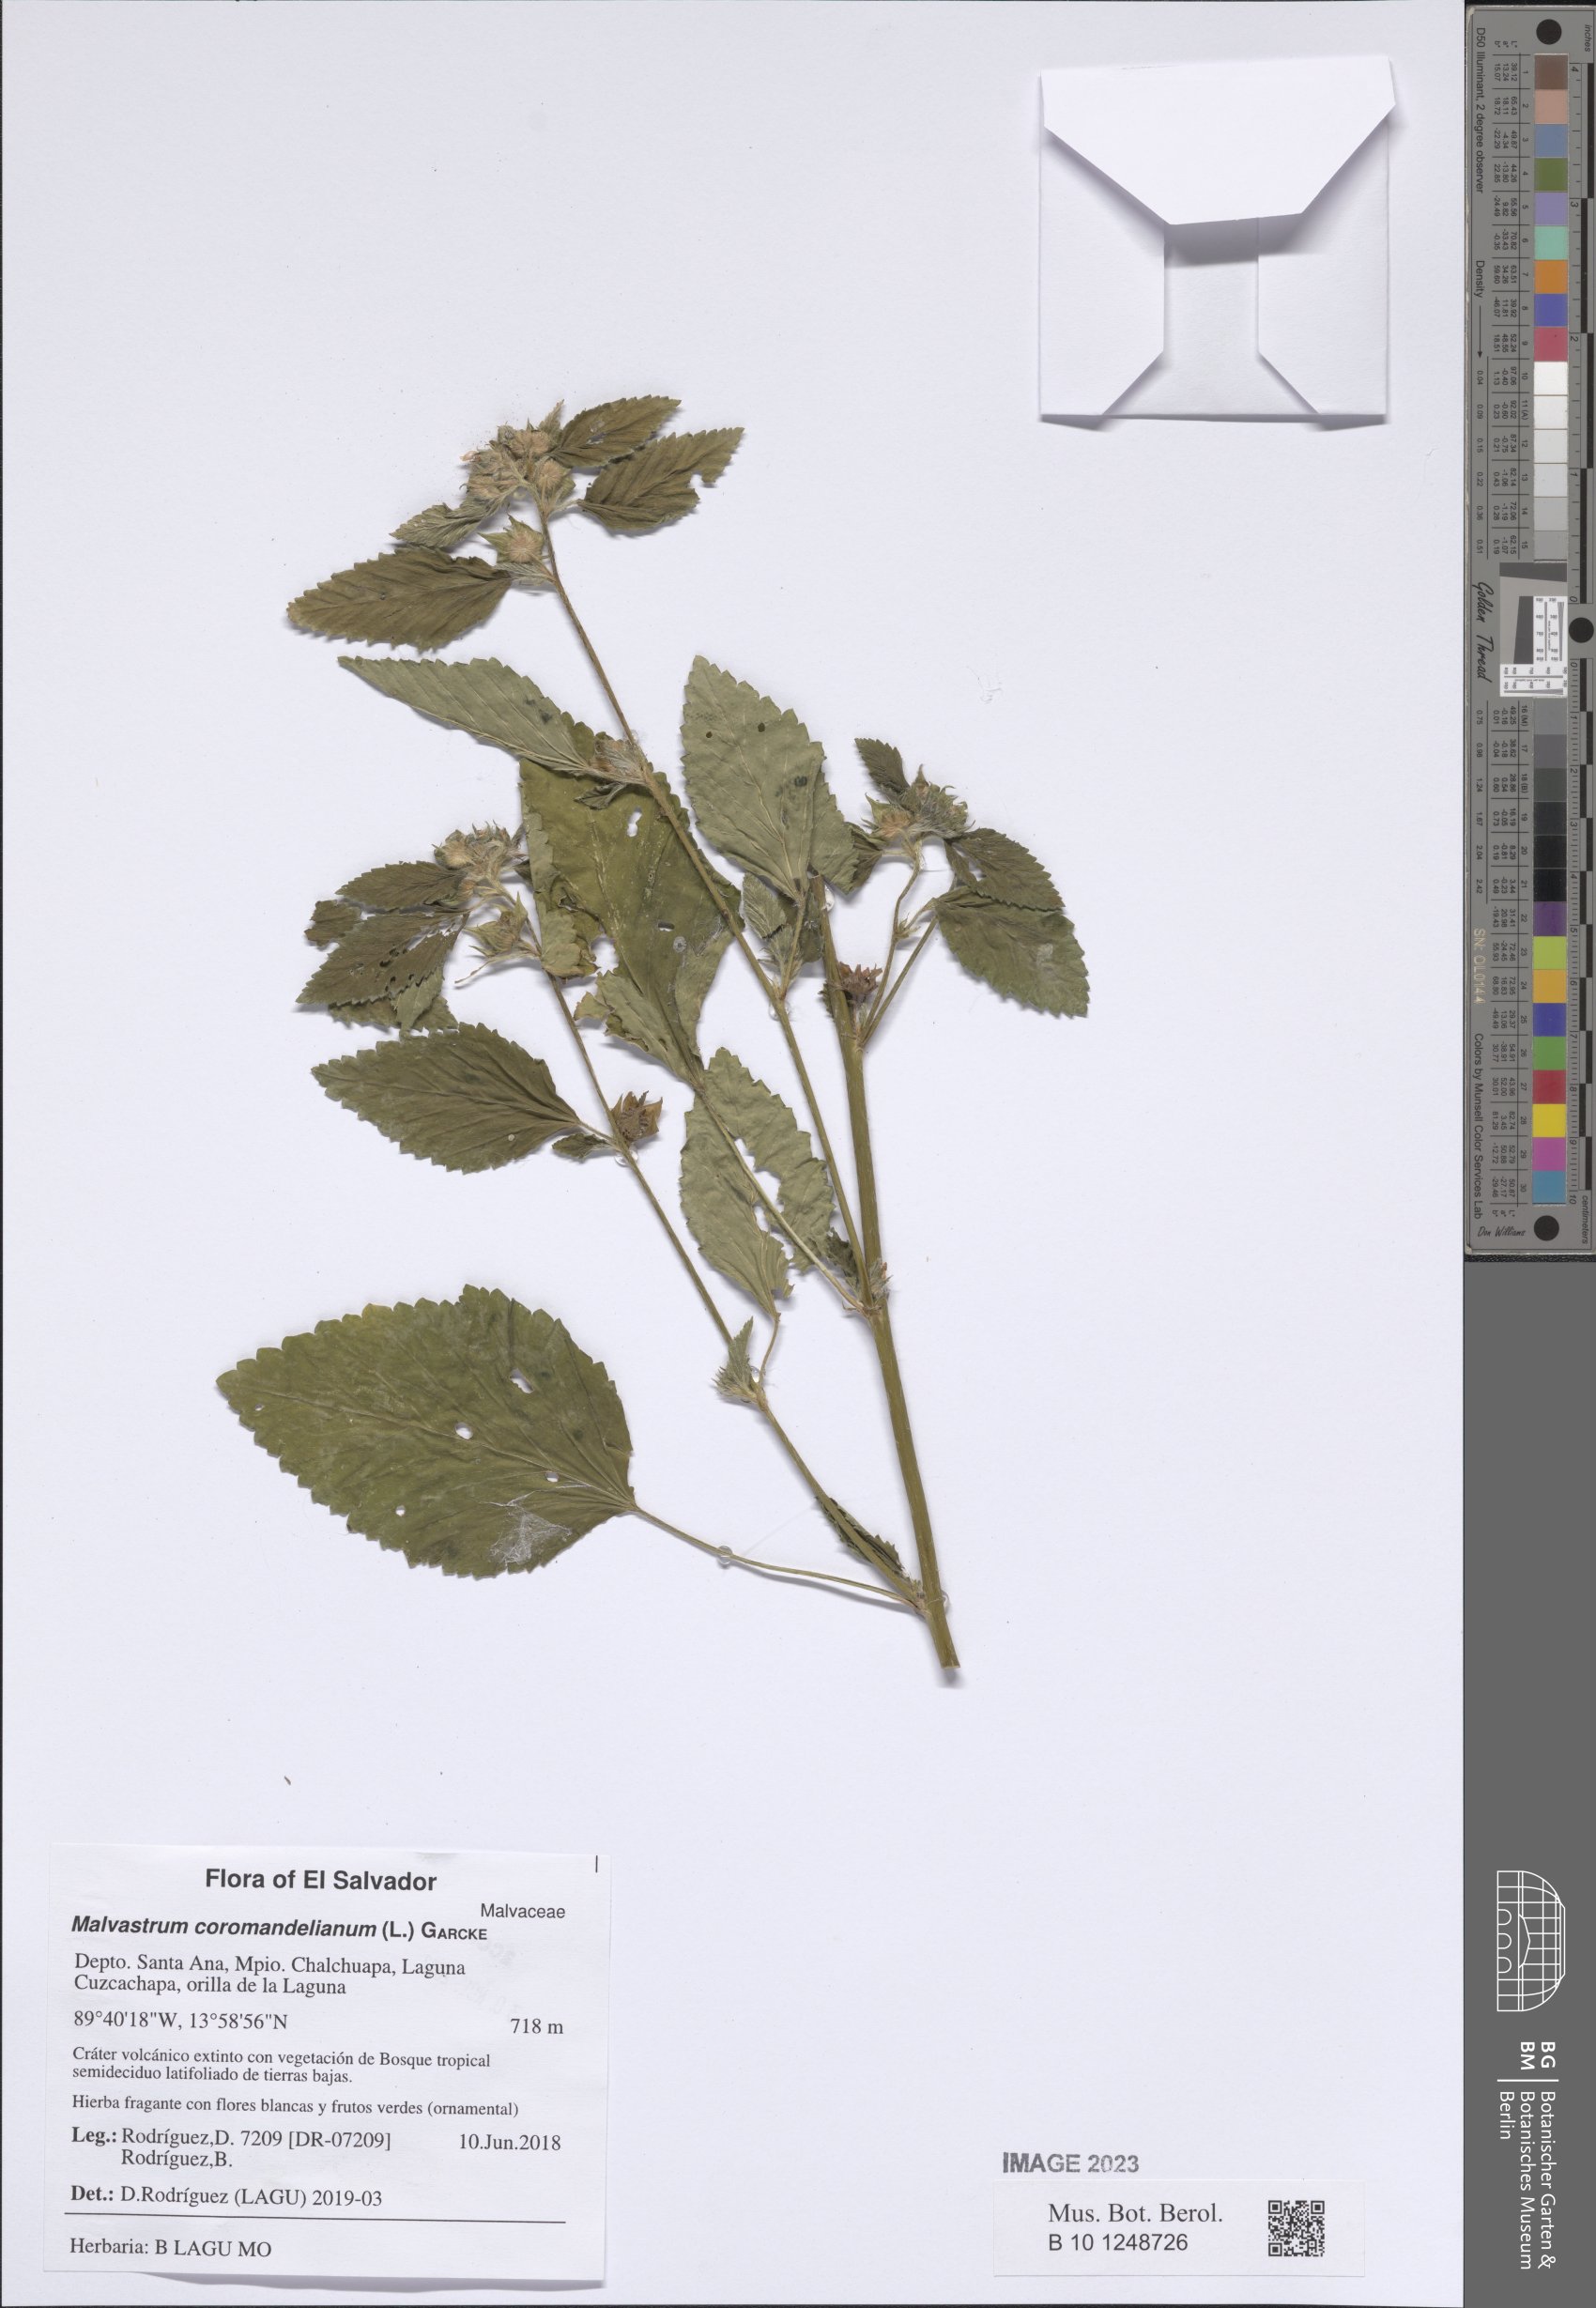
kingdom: Plantae
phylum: Tracheophyta
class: Magnoliopsida
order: Malvales
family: Malvaceae
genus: Malvastrum
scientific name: Malvastrum coromandelianum
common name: Threelobe false mallow
